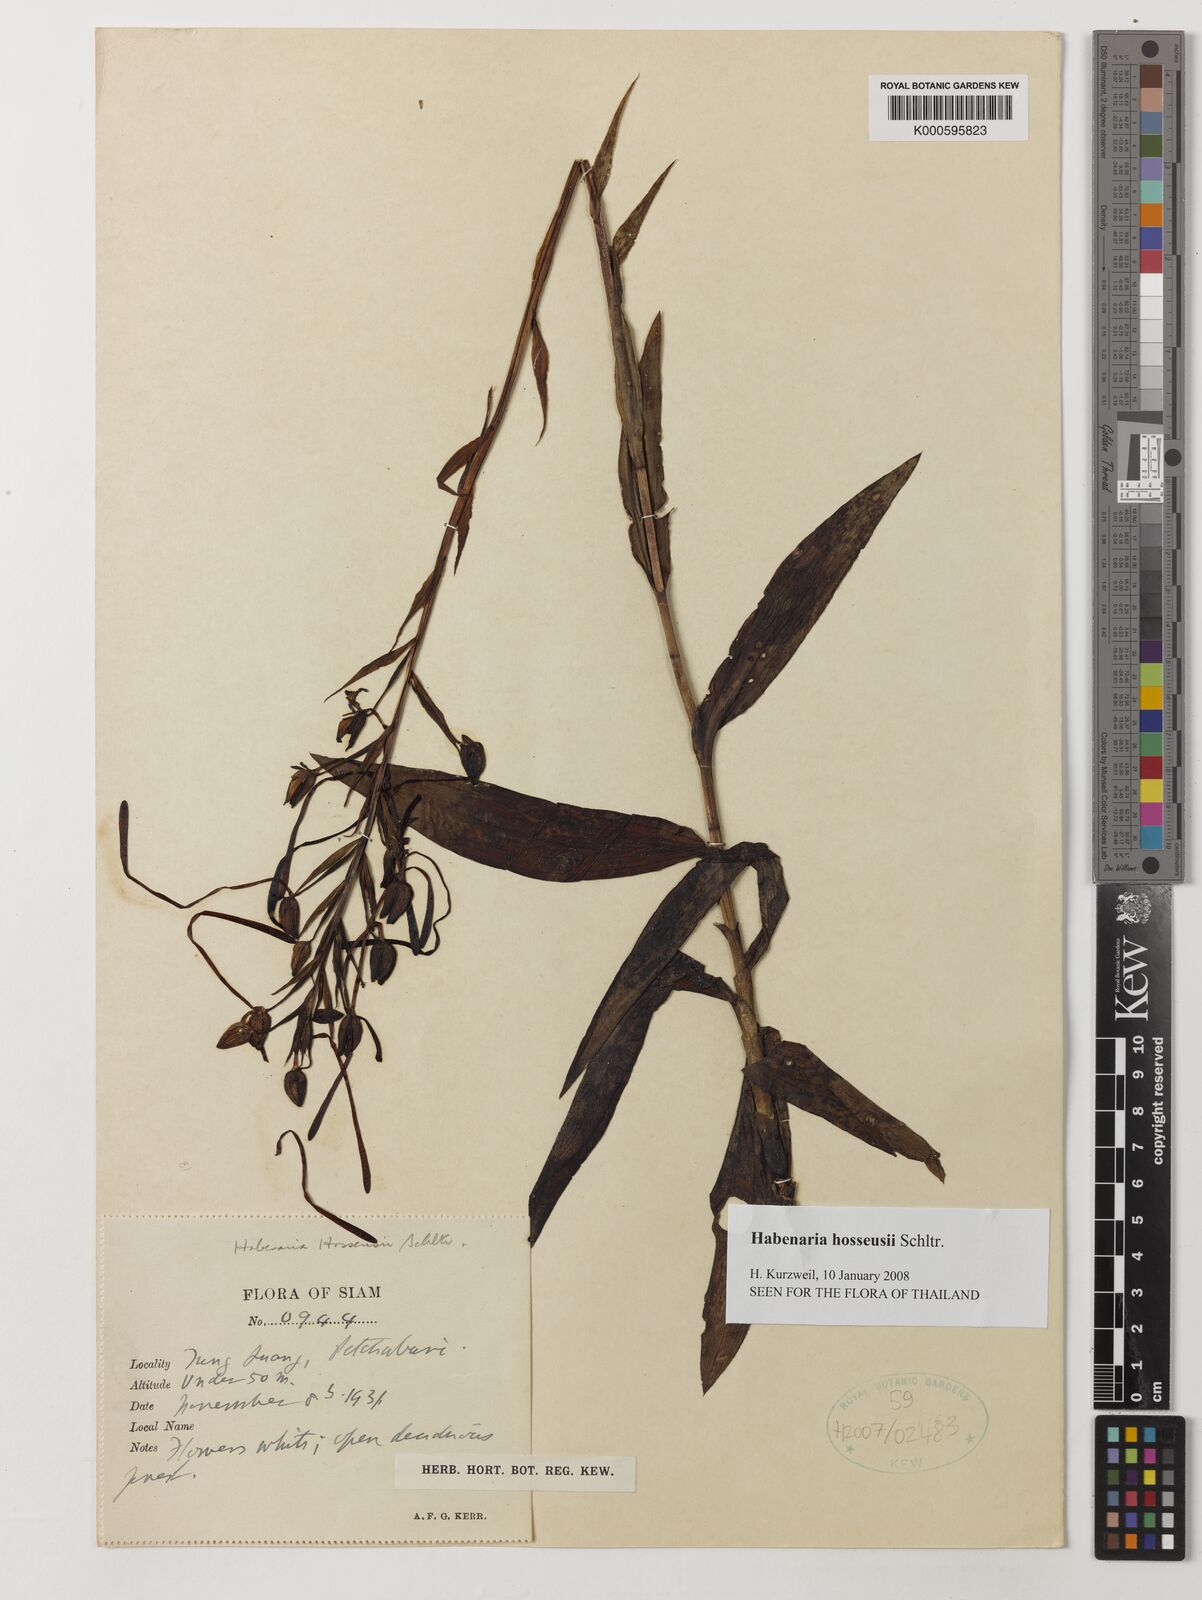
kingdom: Plantae
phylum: Tracheophyta
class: Liliopsida
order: Asparagales
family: Orchidaceae
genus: Habenaria
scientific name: Habenaria hosseusii
